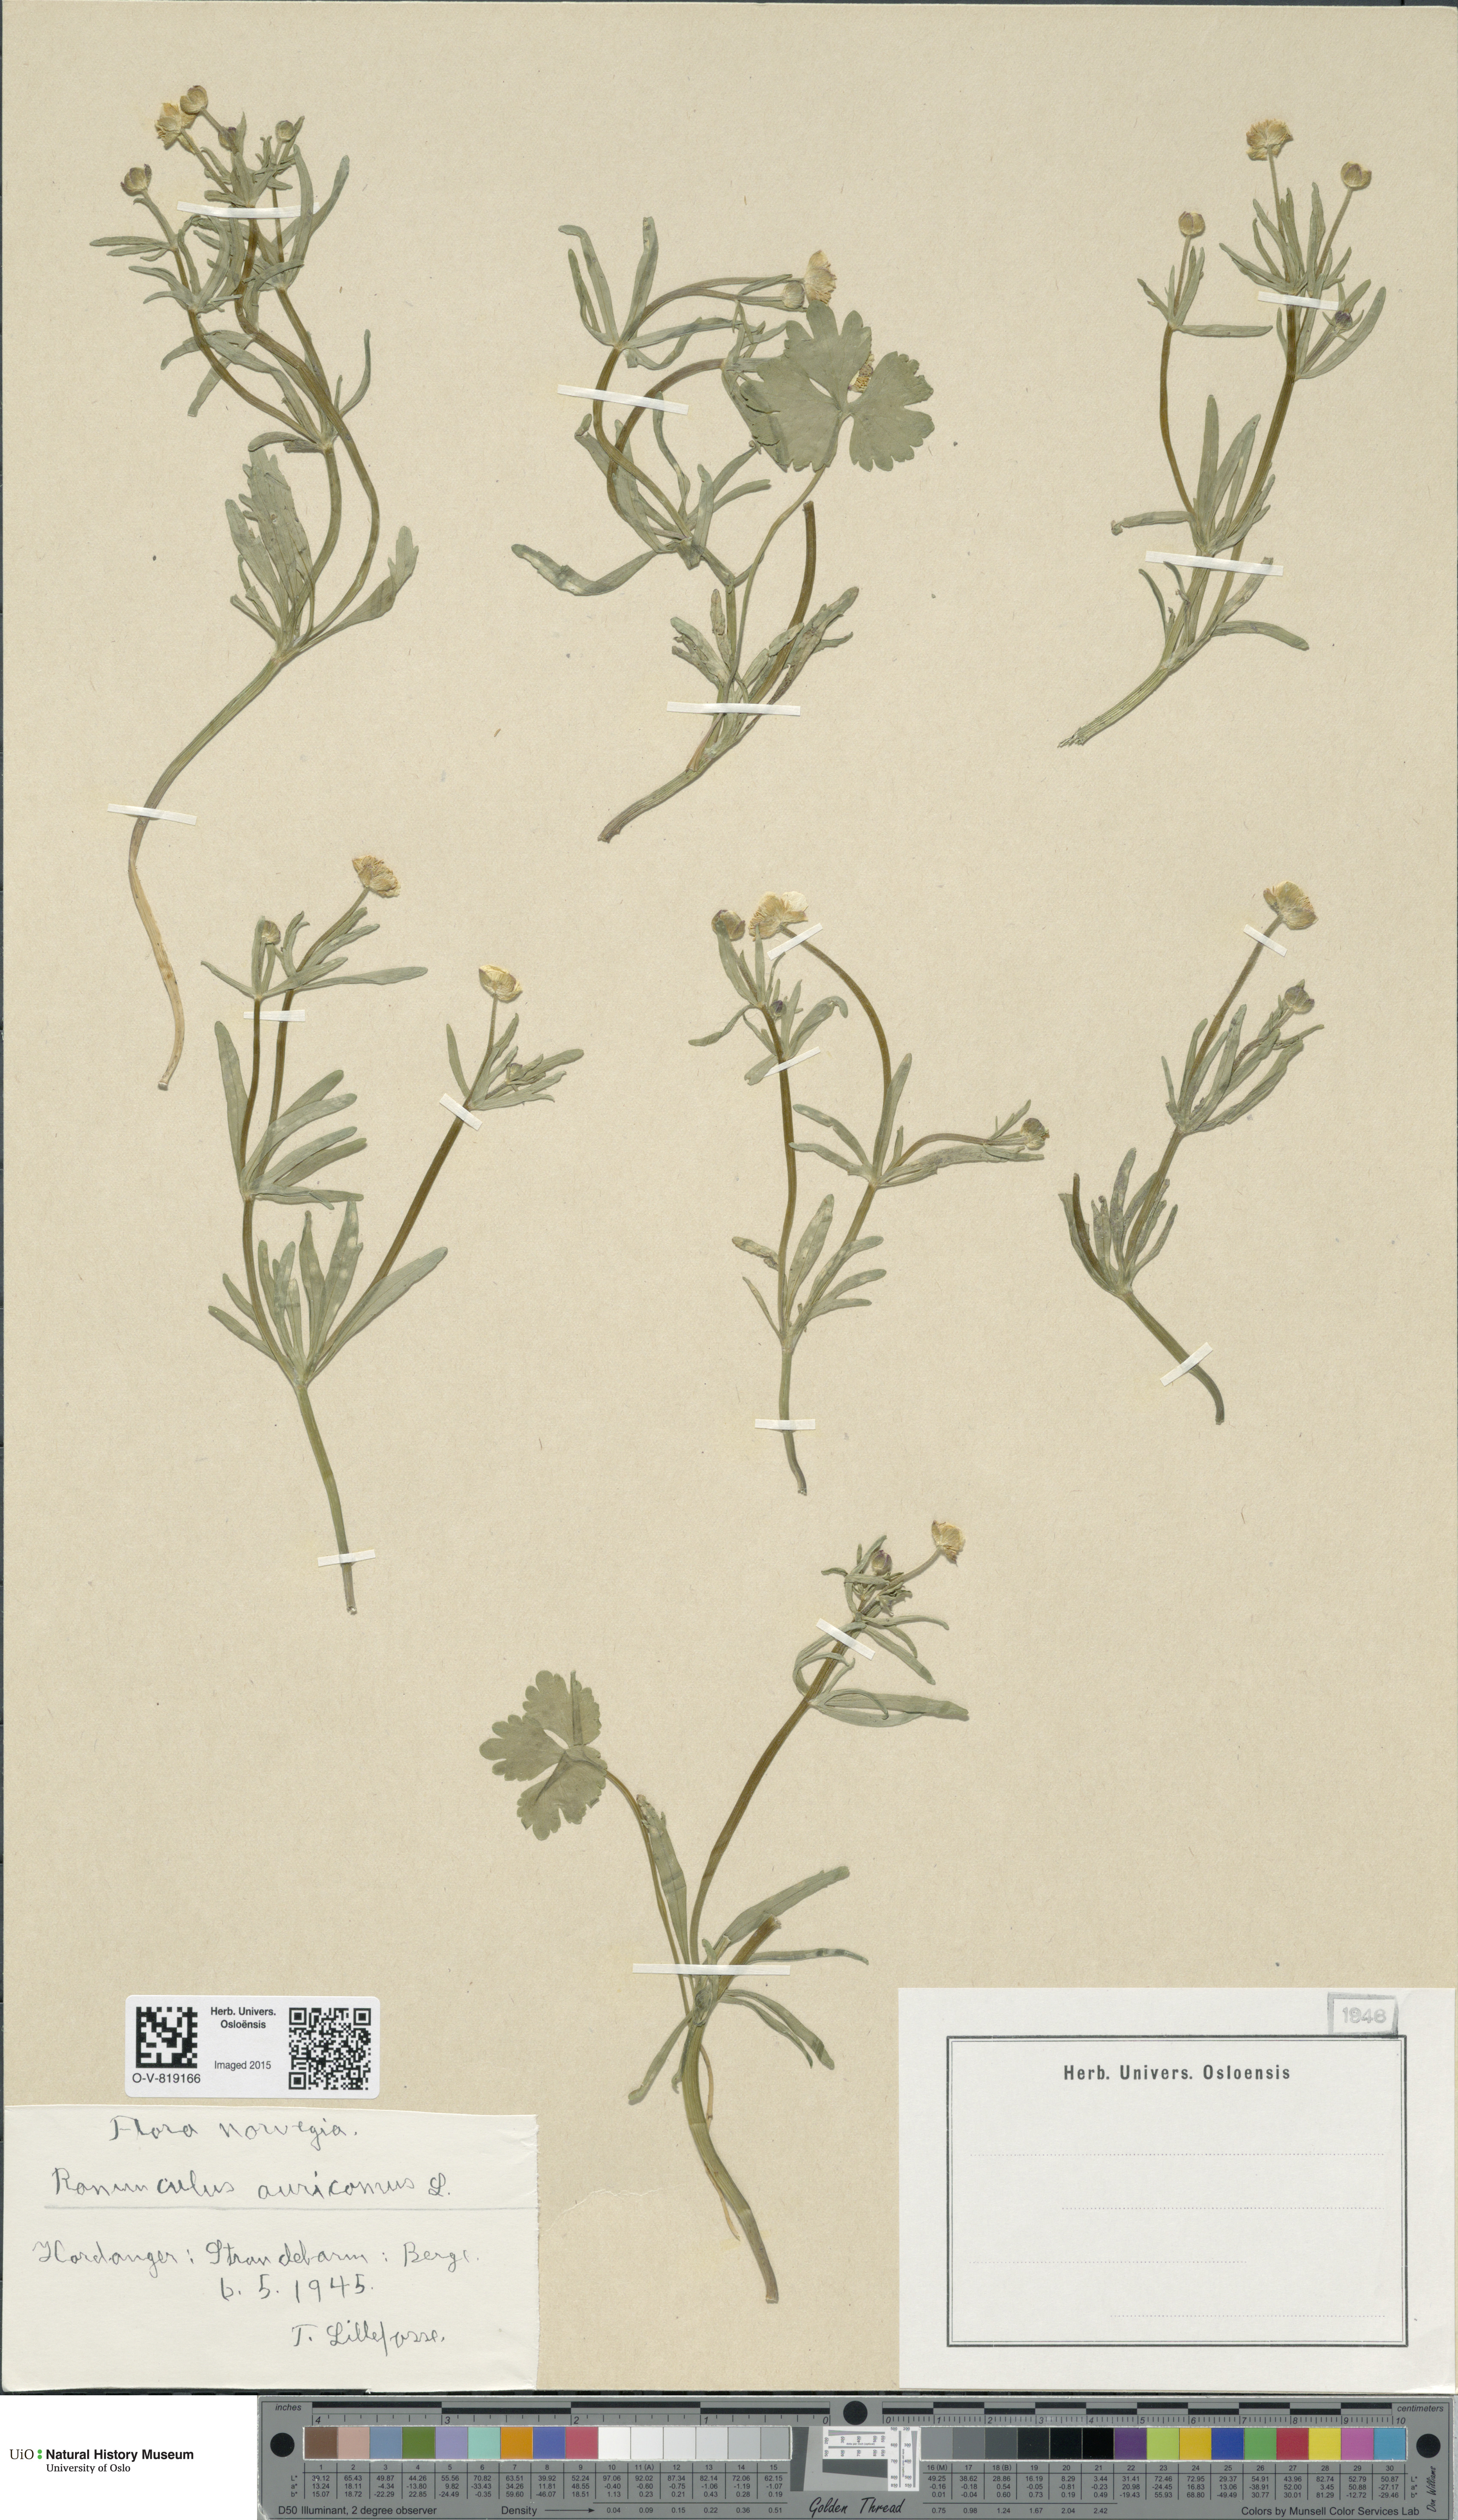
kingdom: Plantae
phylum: Tracheophyta
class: Magnoliopsida
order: Ranunculales
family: Ranunculaceae
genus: Ranunculus
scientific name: Ranunculus auricomus
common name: Goldilocks buttercup
